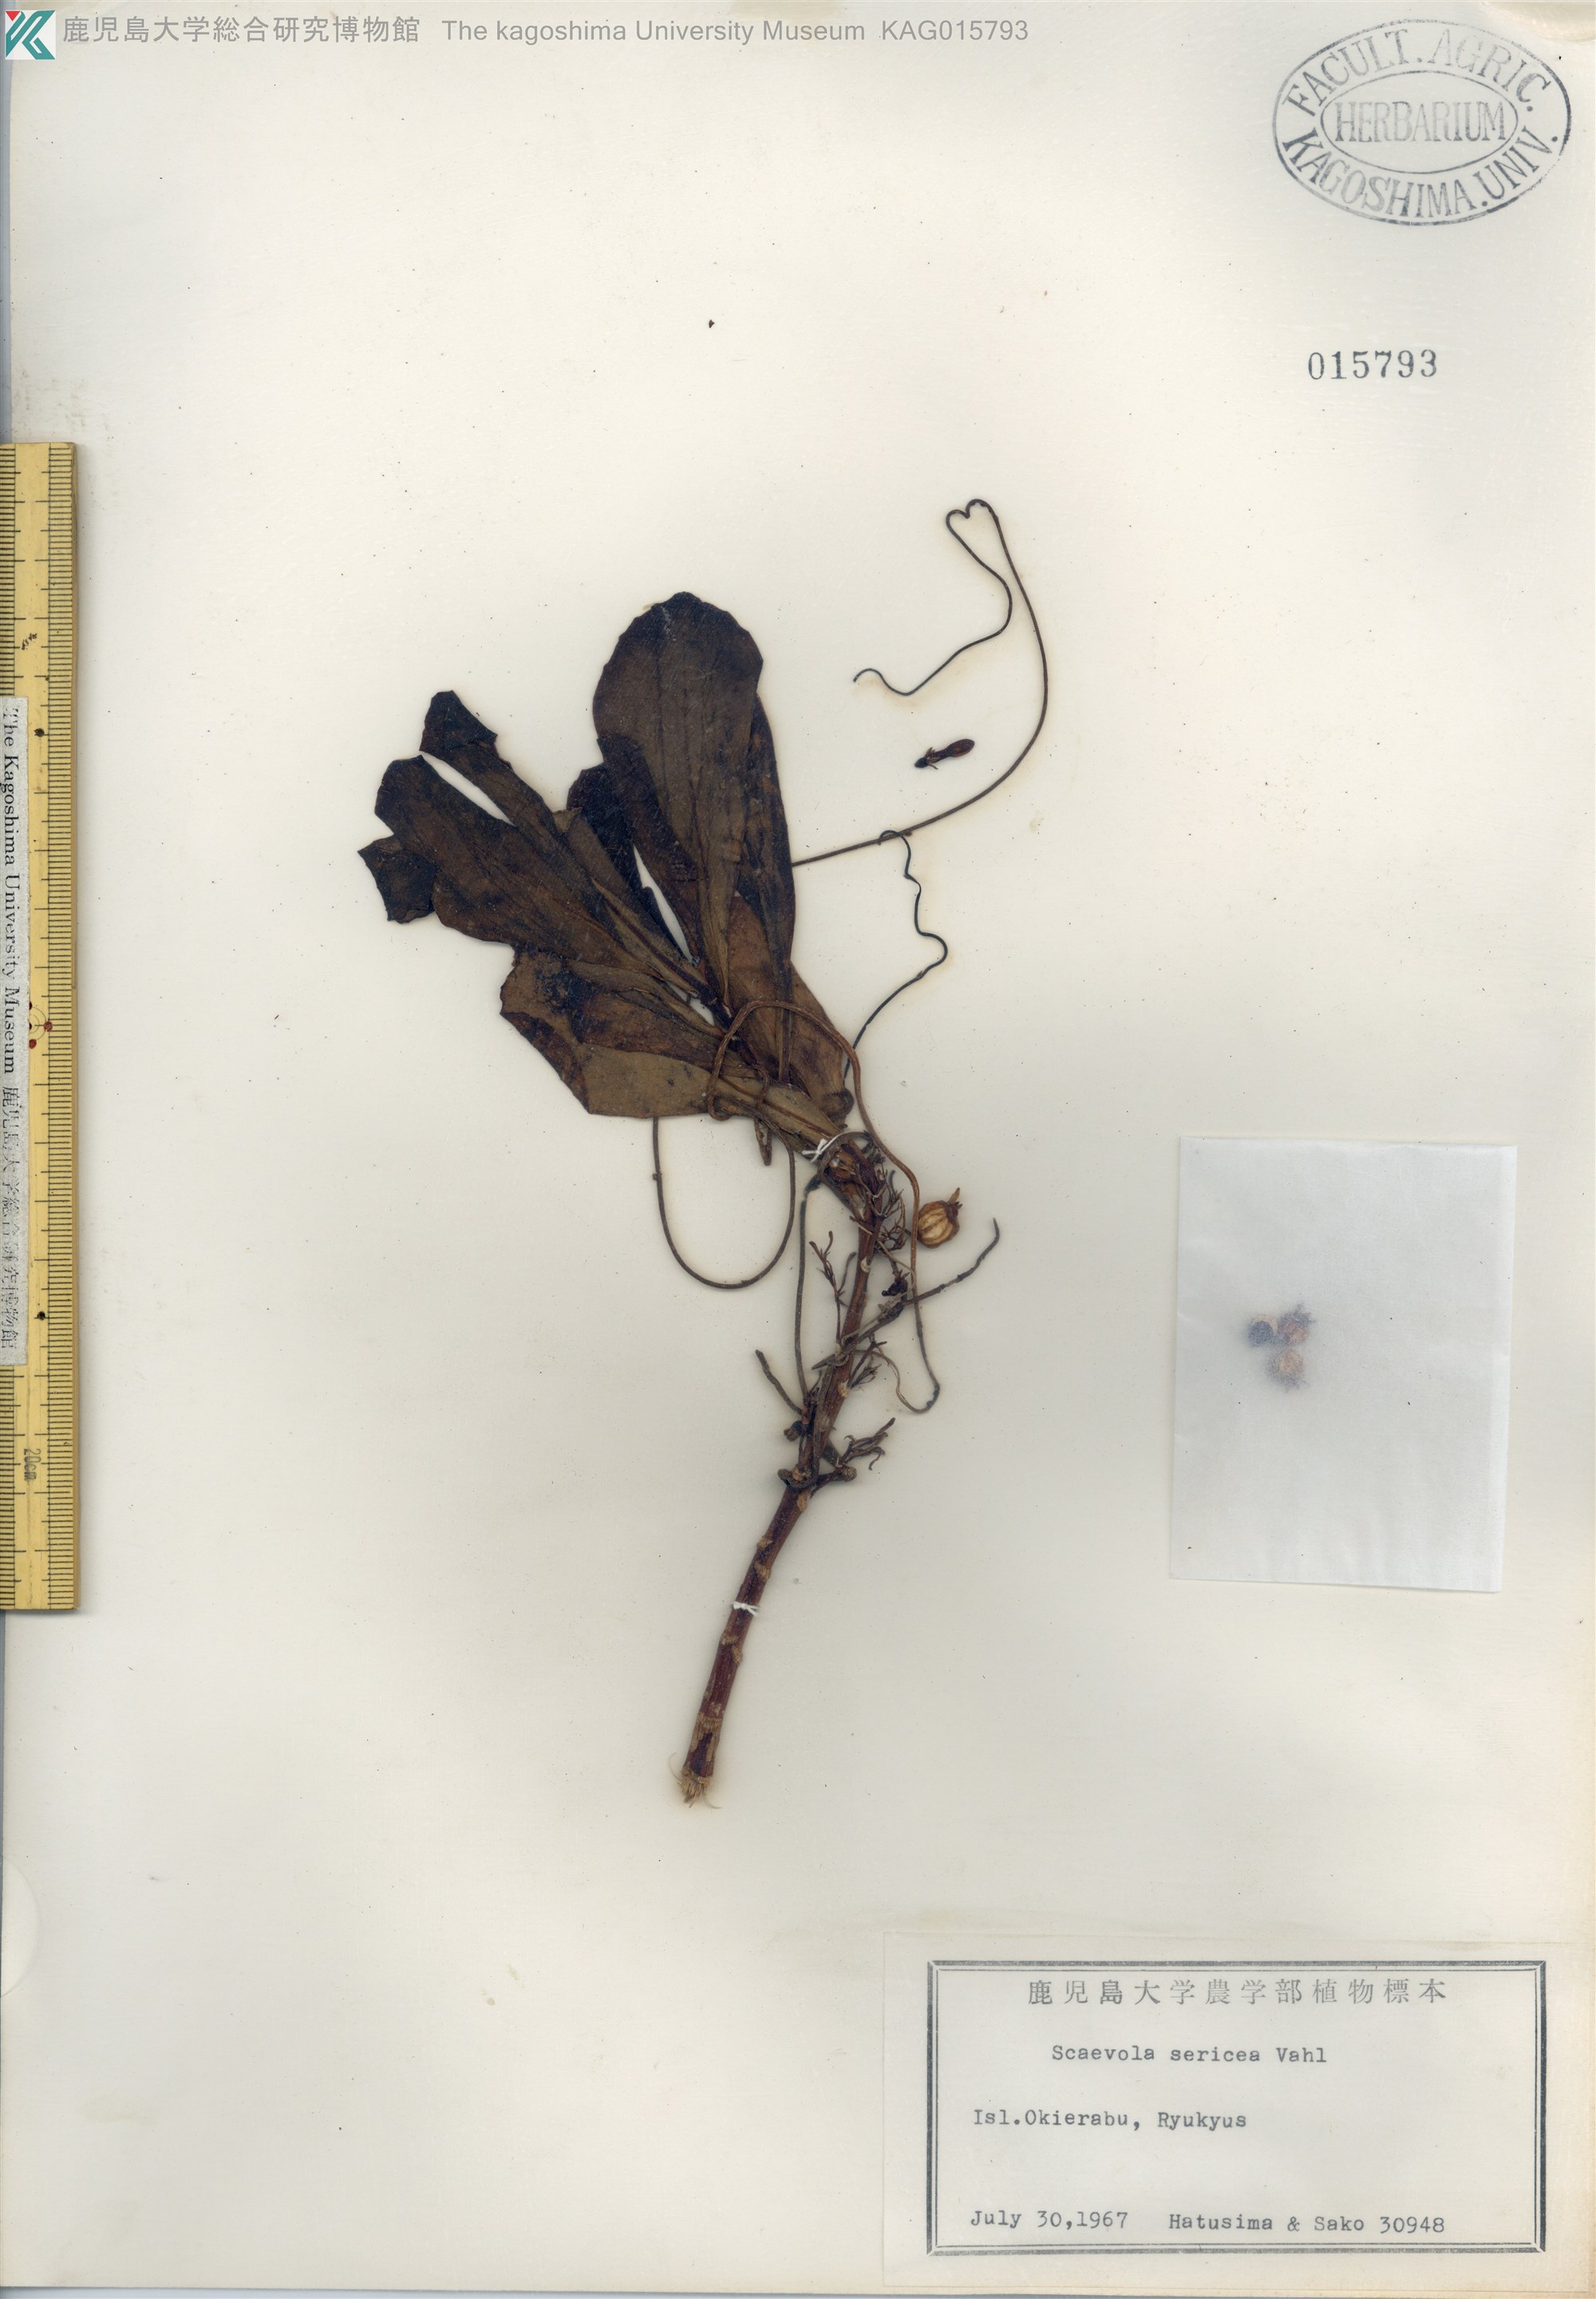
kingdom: Plantae
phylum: Tracheophyta
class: Magnoliopsida
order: Asterales
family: Goodeniaceae
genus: Scaevola
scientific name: Scaevola taccada
